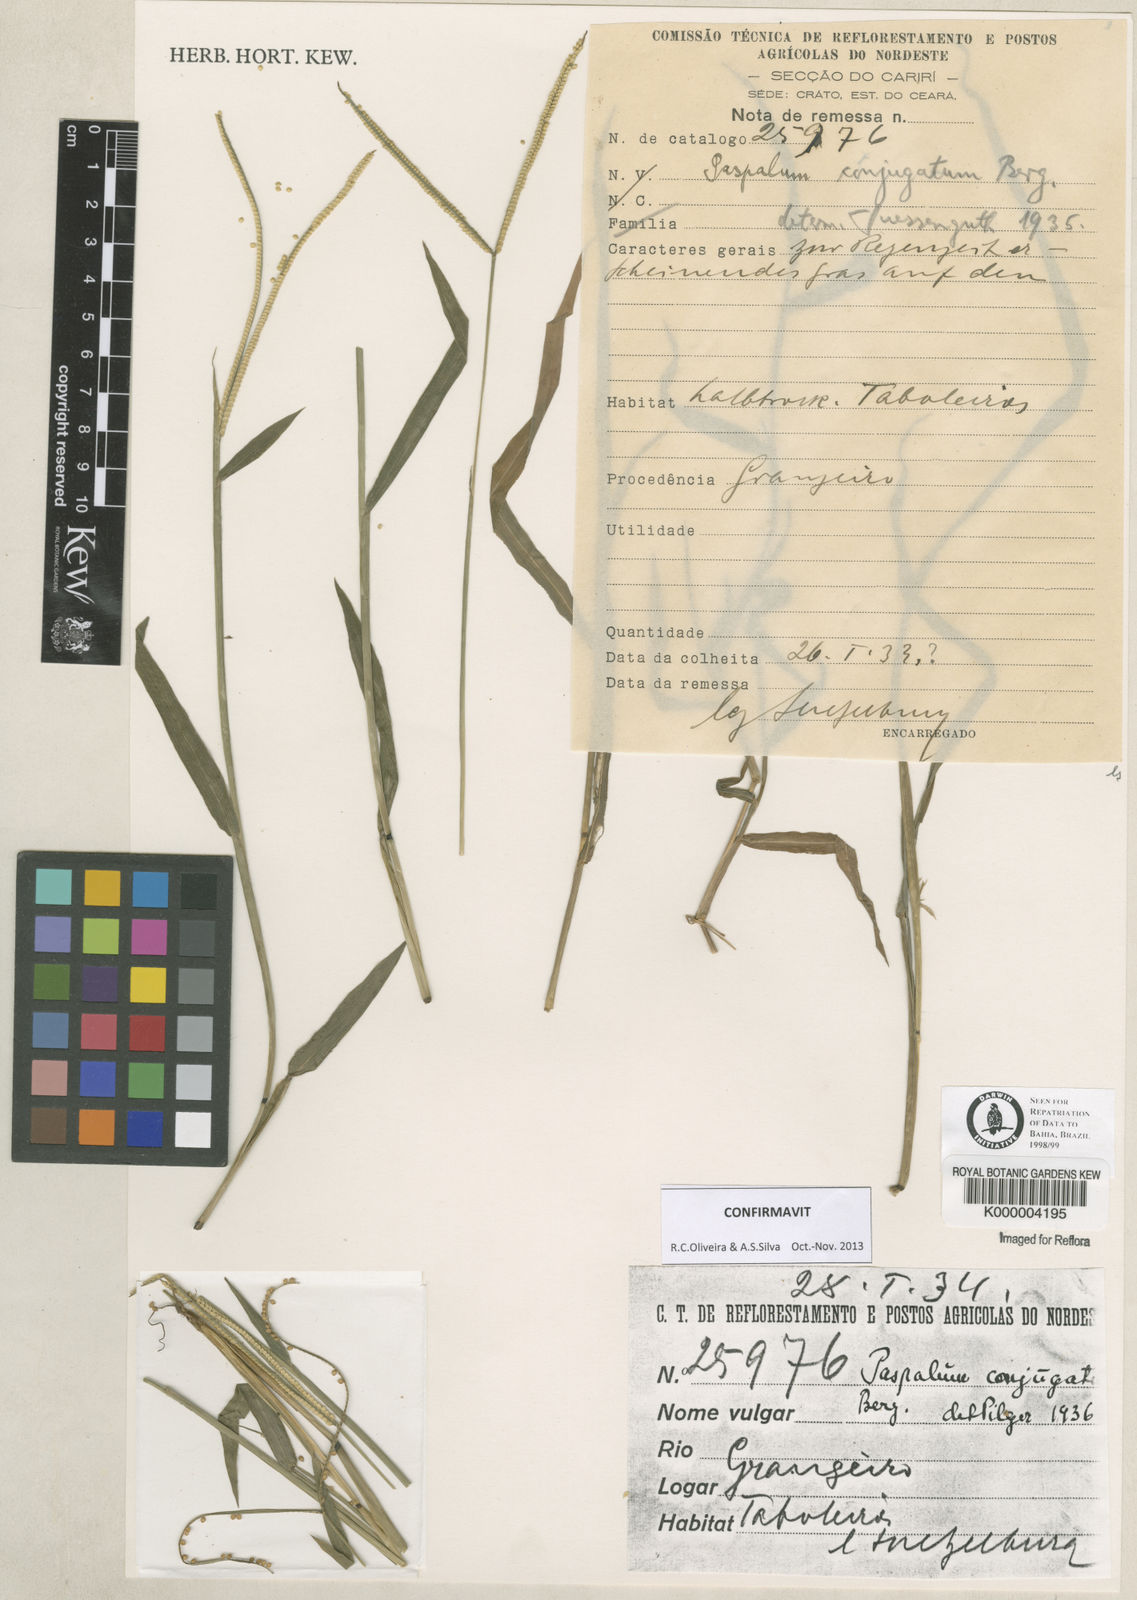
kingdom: Plantae
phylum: Tracheophyta
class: Liliopsida
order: Poales
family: Poaceae
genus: Paspalum
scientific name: Paspalum conjugatum
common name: Hilograss
